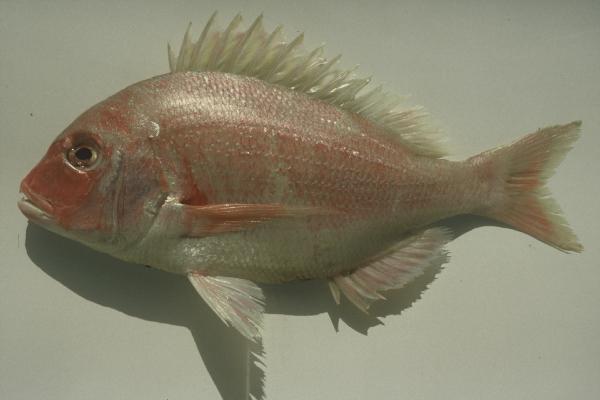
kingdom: Animalia
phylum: Chordata
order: Perciformes
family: Sparidae
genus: Polysteganus
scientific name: Polysteganus coeruleopunctatus
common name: Blueskin
